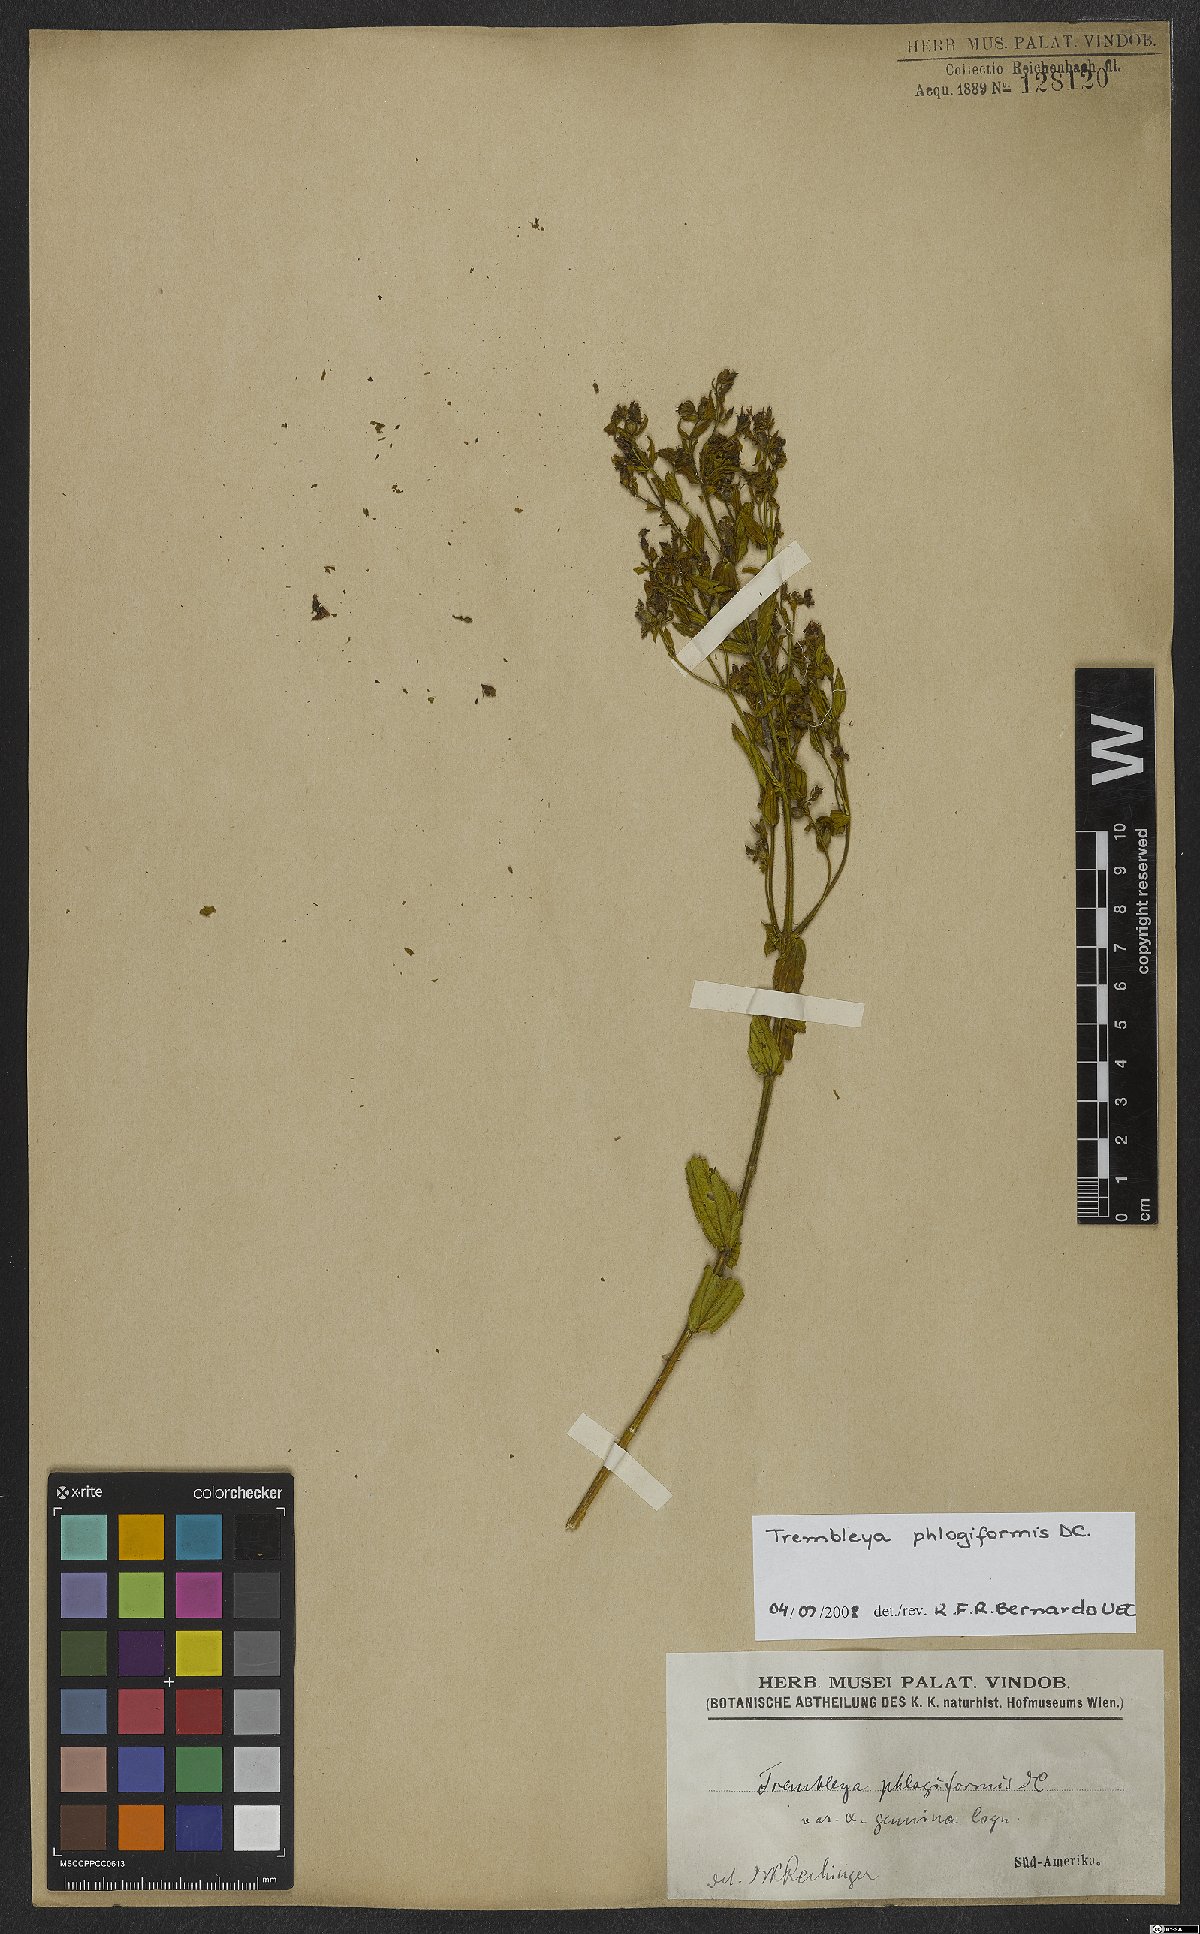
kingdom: Plantae
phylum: Tracheophyta
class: Magnoliopsida
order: Myrtales
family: Melastomataceae
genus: Microlicia
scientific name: Microlicia phlogiformis
